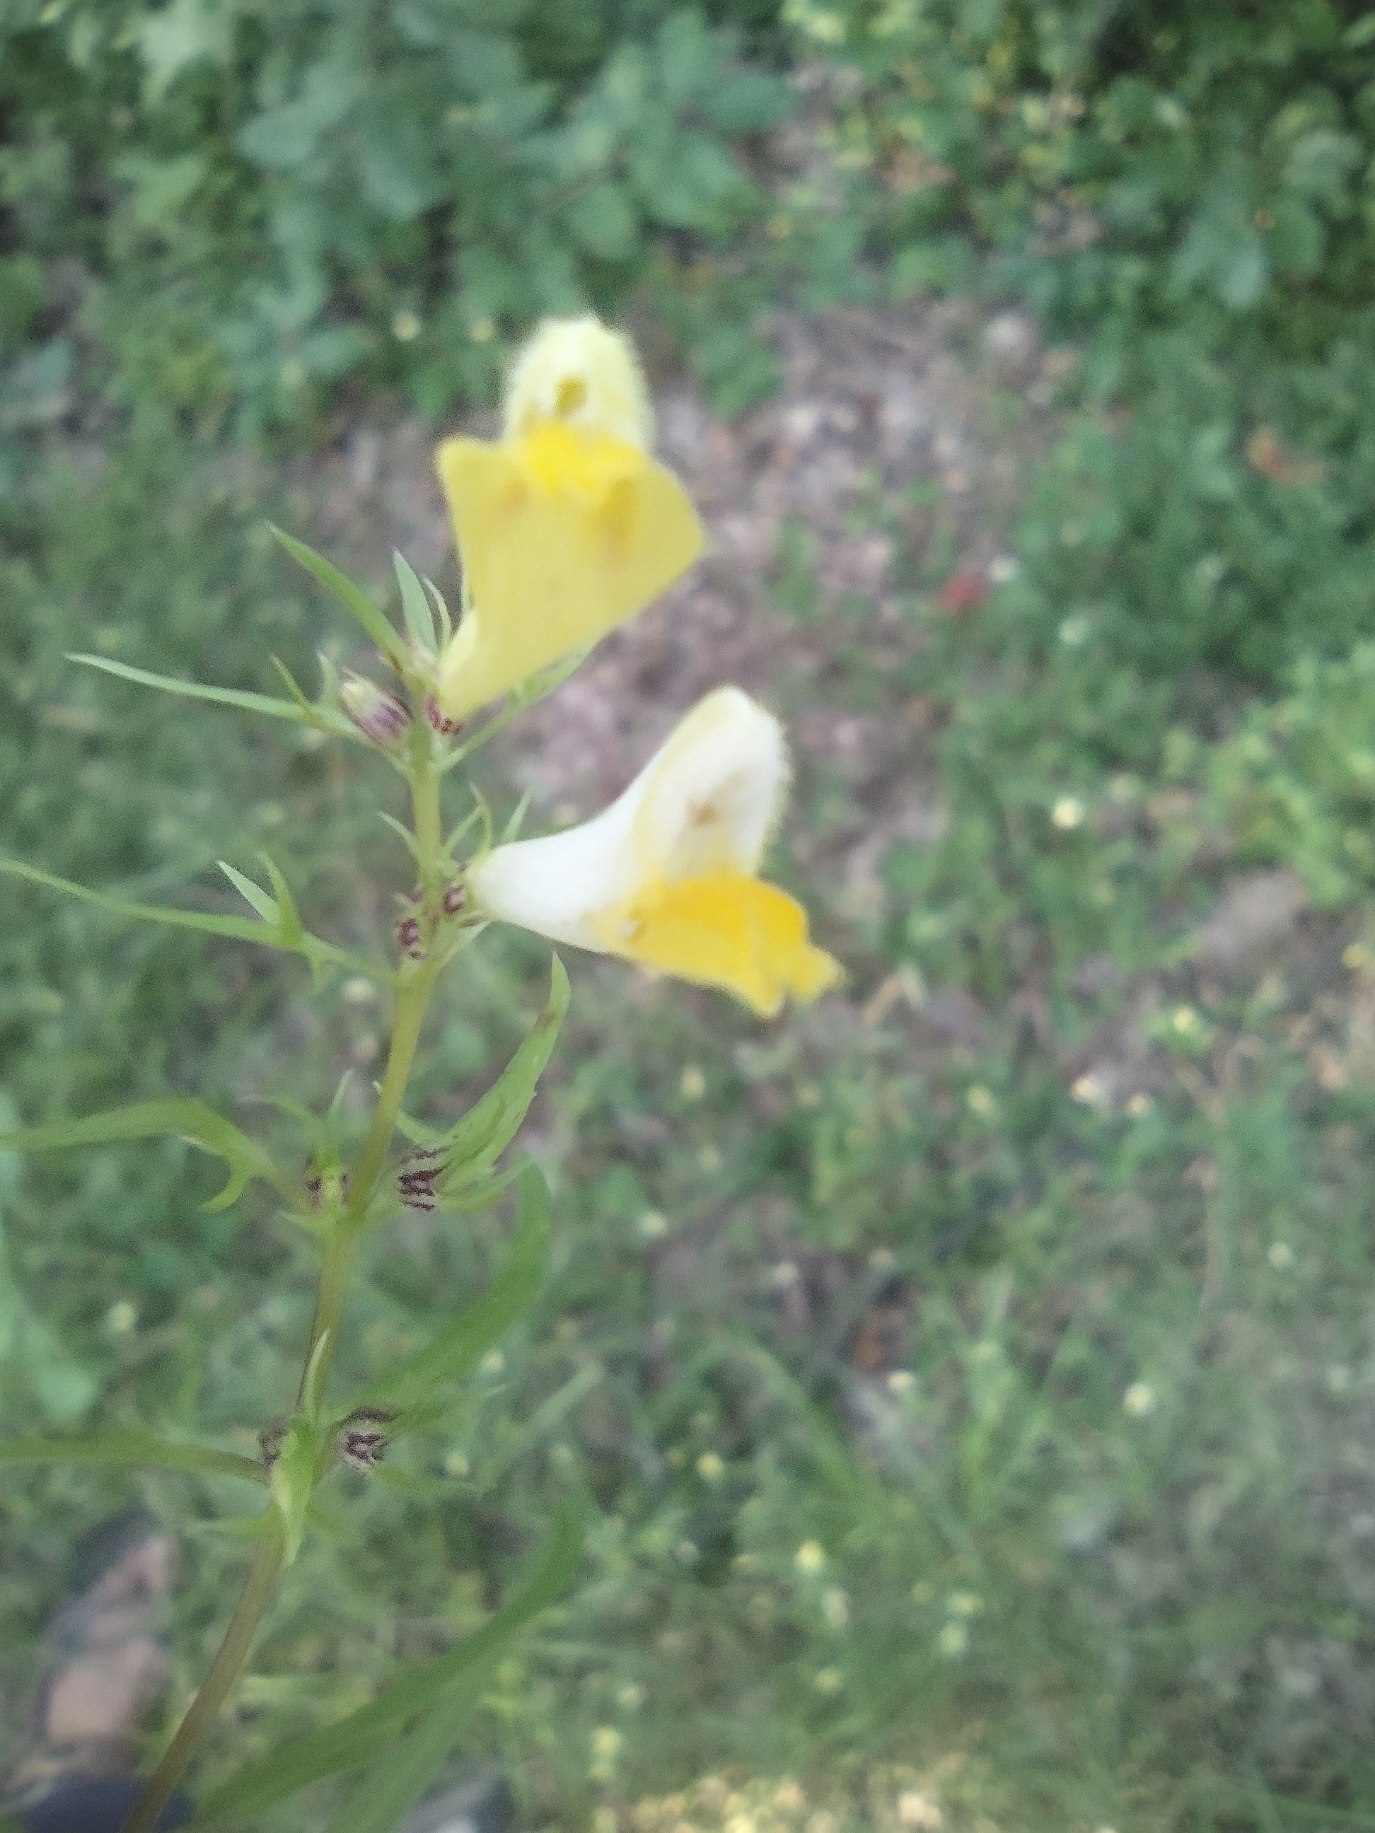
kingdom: Plantae
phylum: Tracheophyta
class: Magnoliopsida
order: Lamiales
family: Orobanchaceae
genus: Melampyrum
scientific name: Melampyrum pratense
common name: Almindelig kohvede
